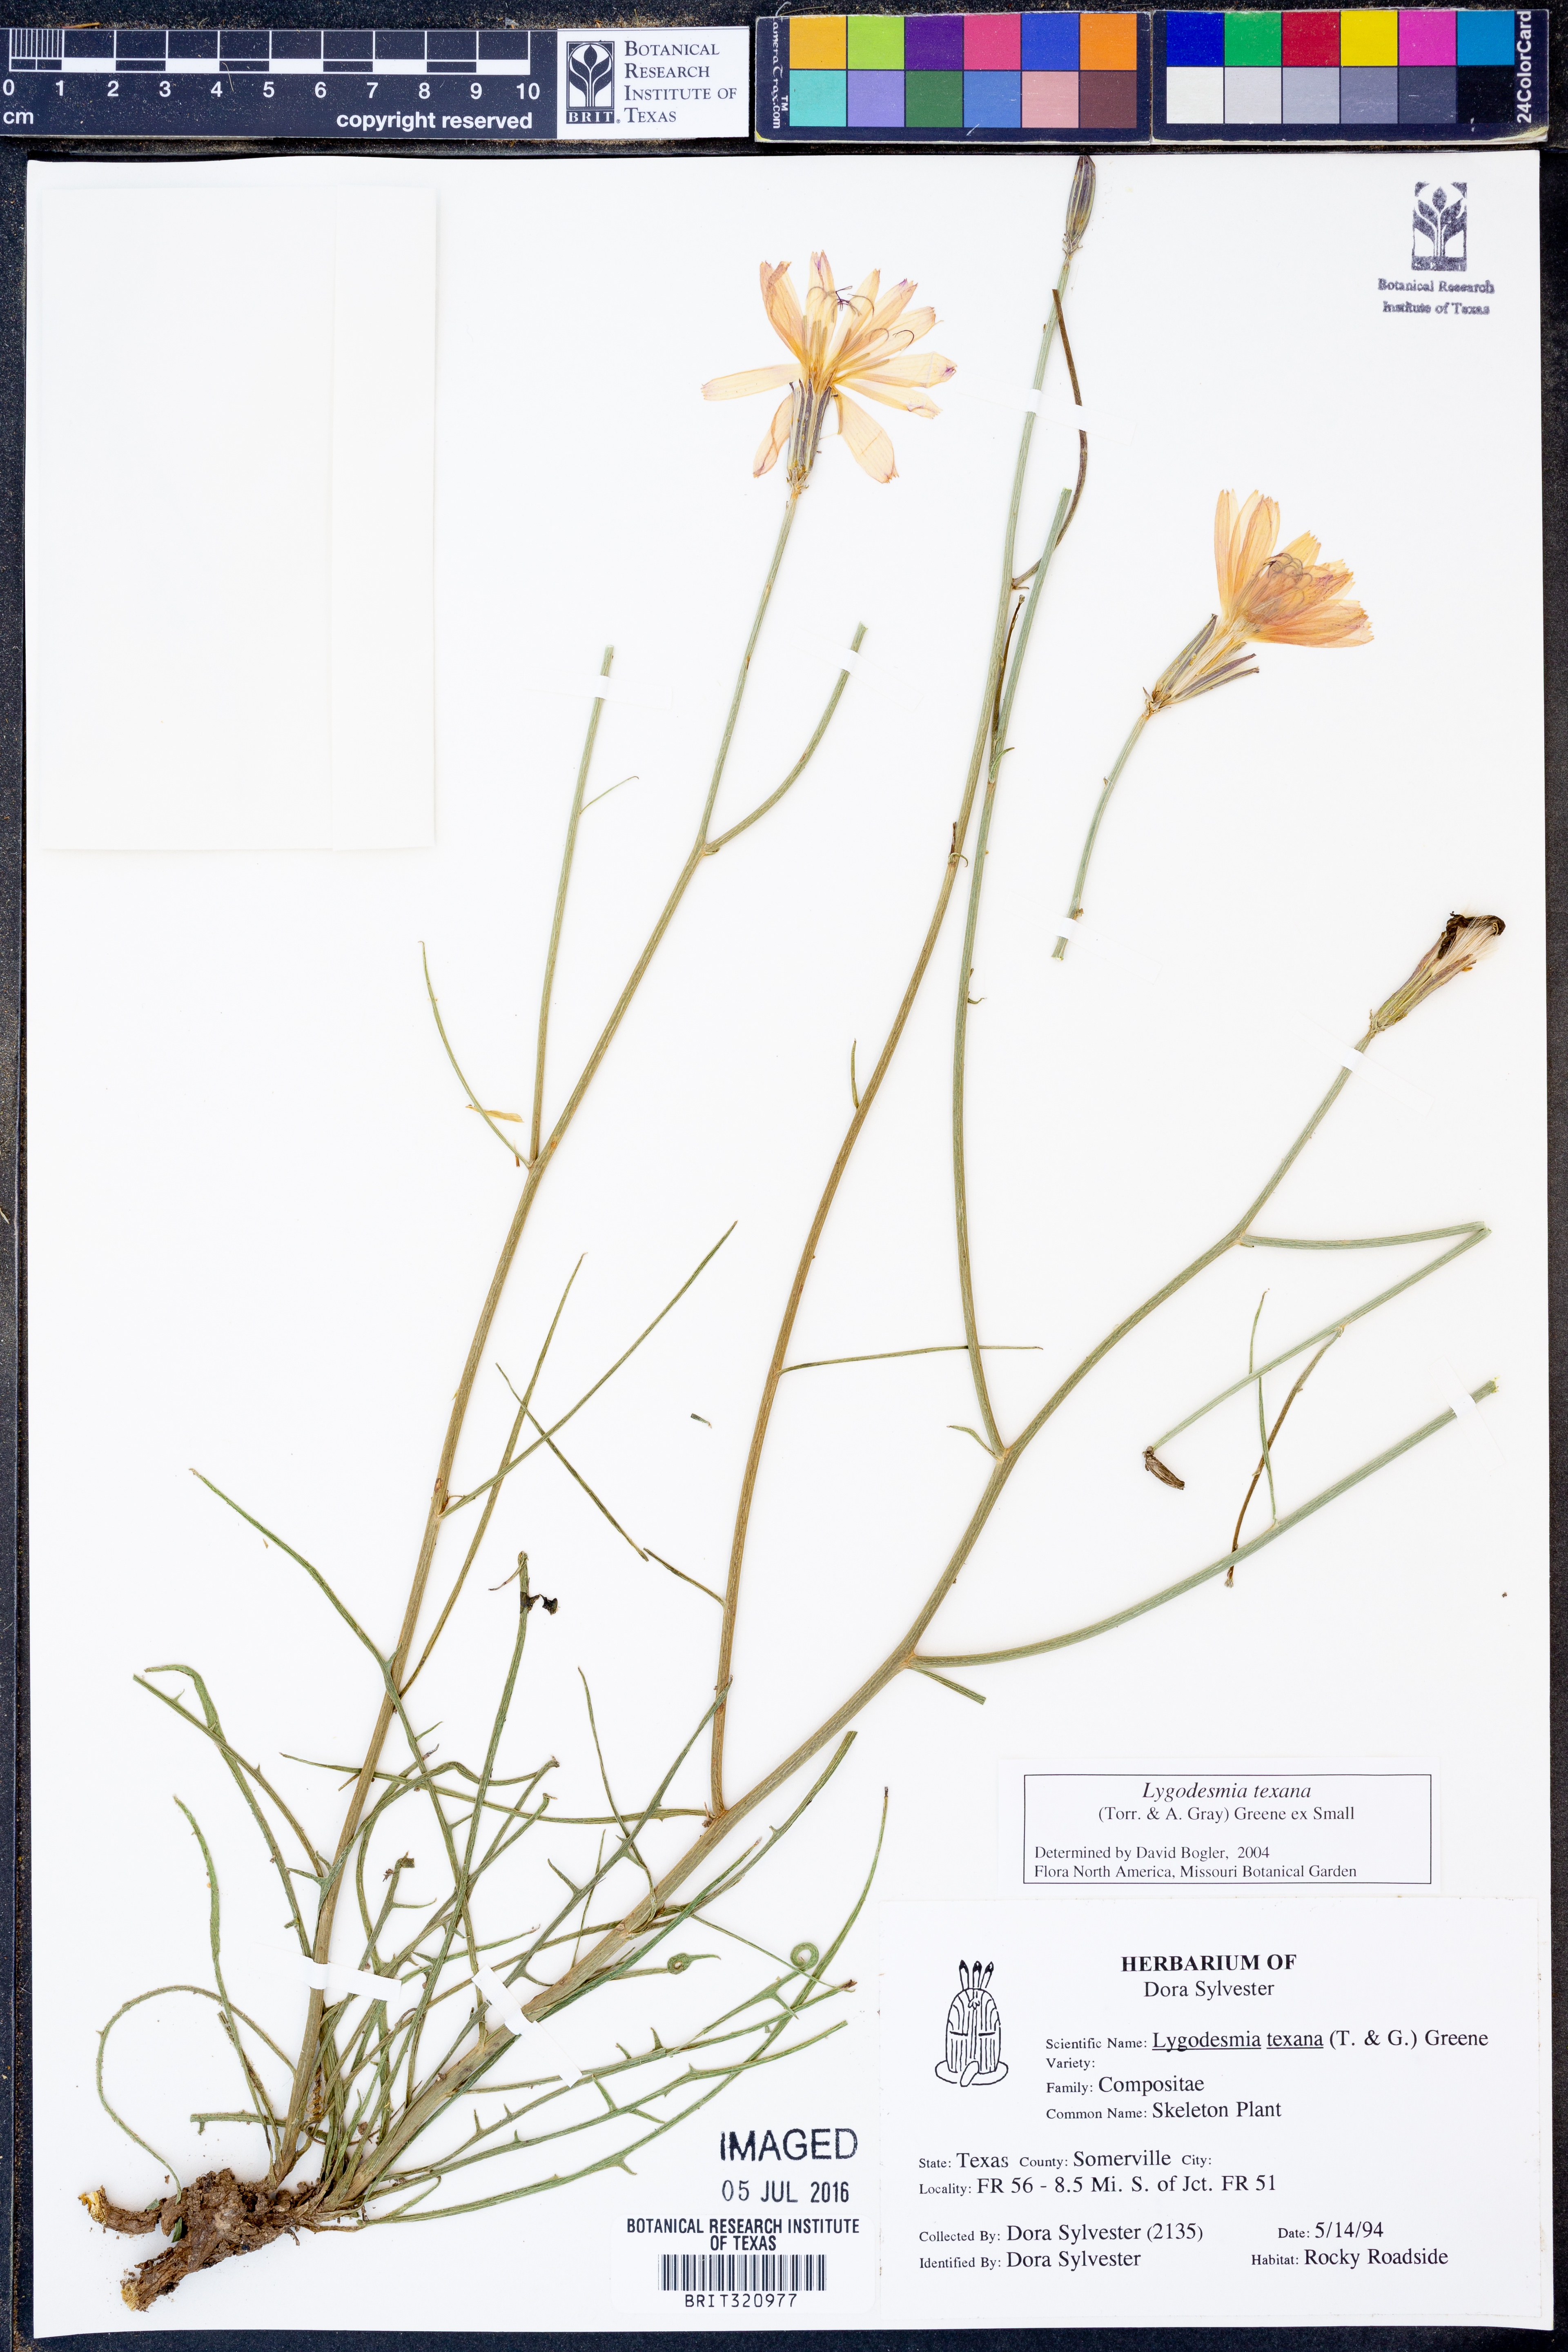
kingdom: Plantae
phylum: Tracheophyta
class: Magnoliopsida
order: Asterales
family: Asteraceae
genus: Lygodesmia
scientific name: Lygodesmia texana
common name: Texas skeleton-plant
